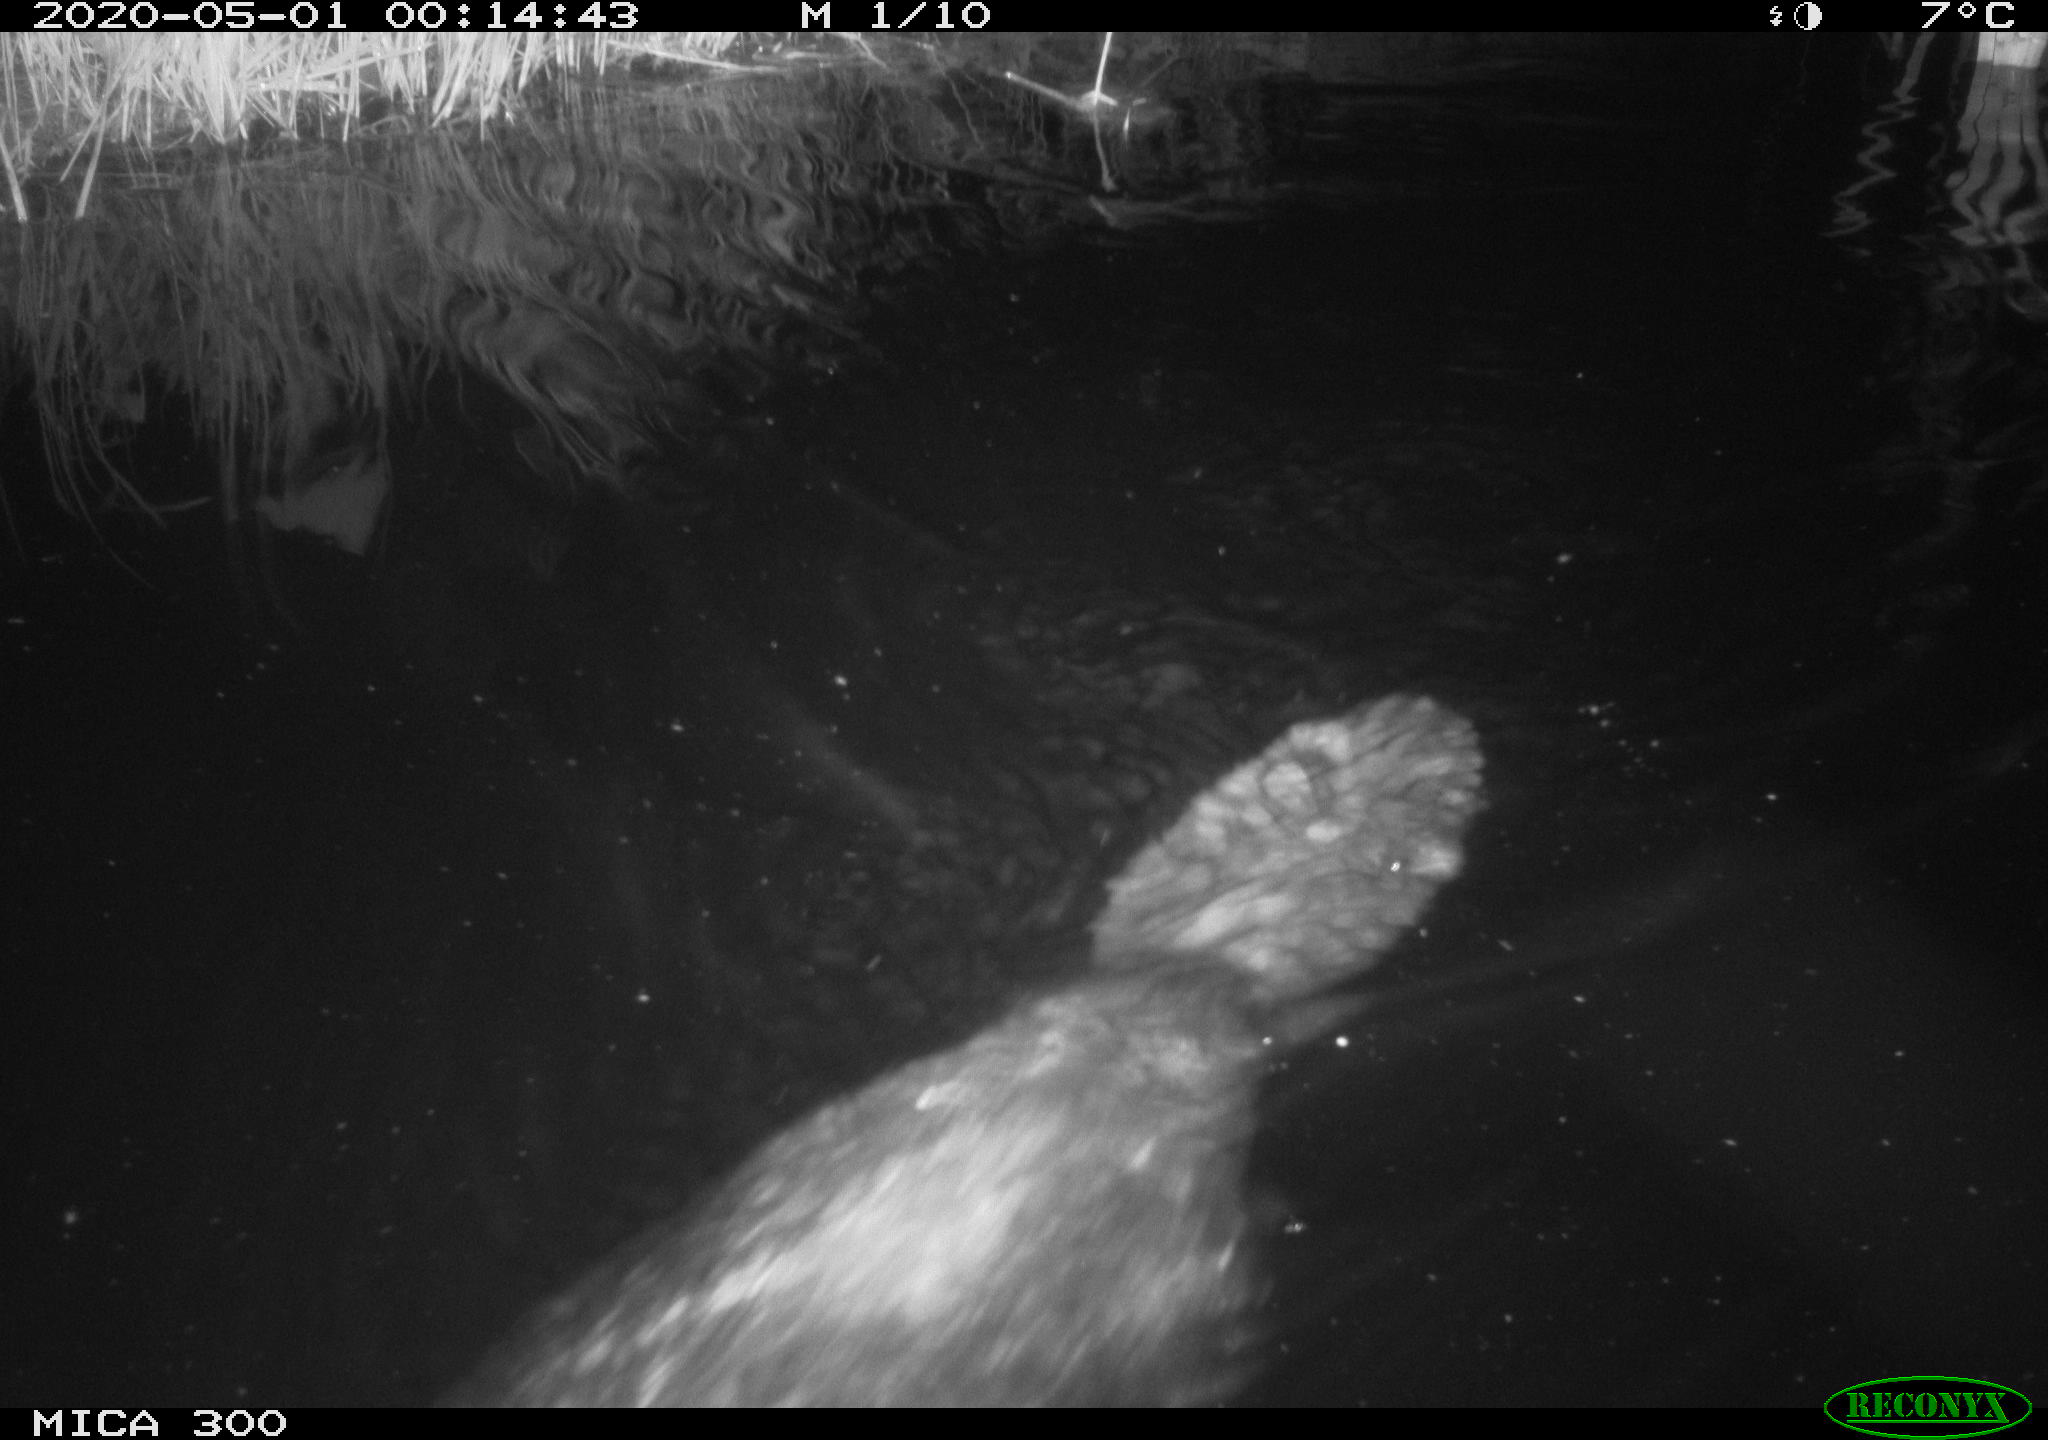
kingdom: Animalia
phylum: Chordata
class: Mammalia
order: Rodentia
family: Castoridae
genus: Castor
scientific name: Castor fiber
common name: Eurasian beaver
